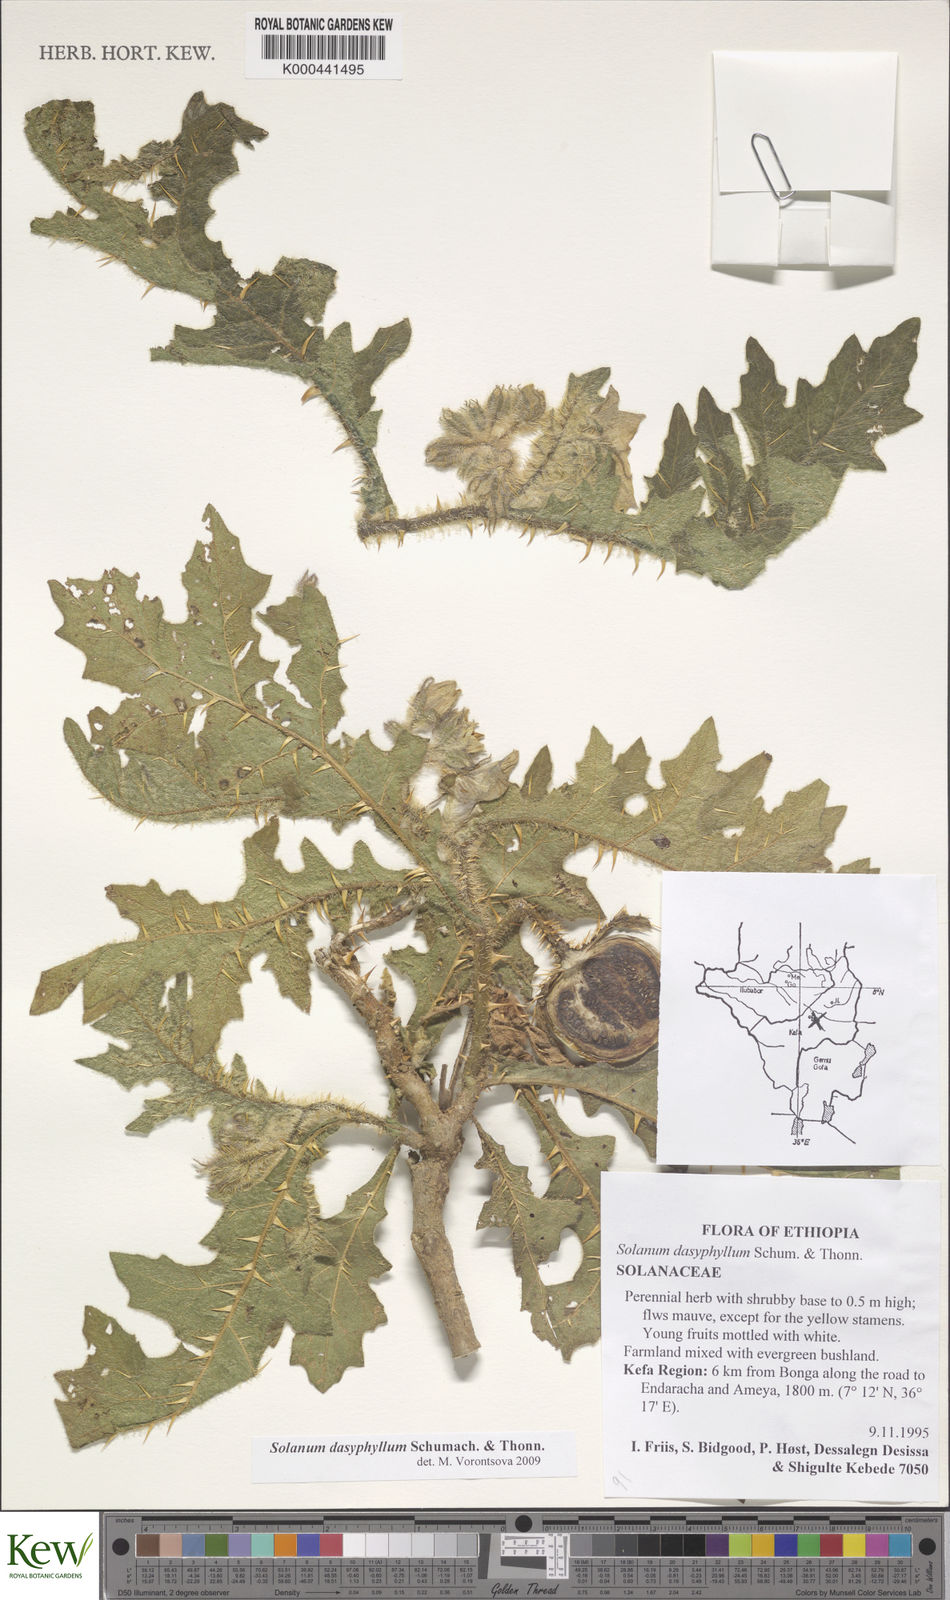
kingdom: Plantae
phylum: Tracheophyta
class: Magnoliopsida
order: Solanales
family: Solanaceae
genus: Solanum
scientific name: Solanum dasyphyllum
